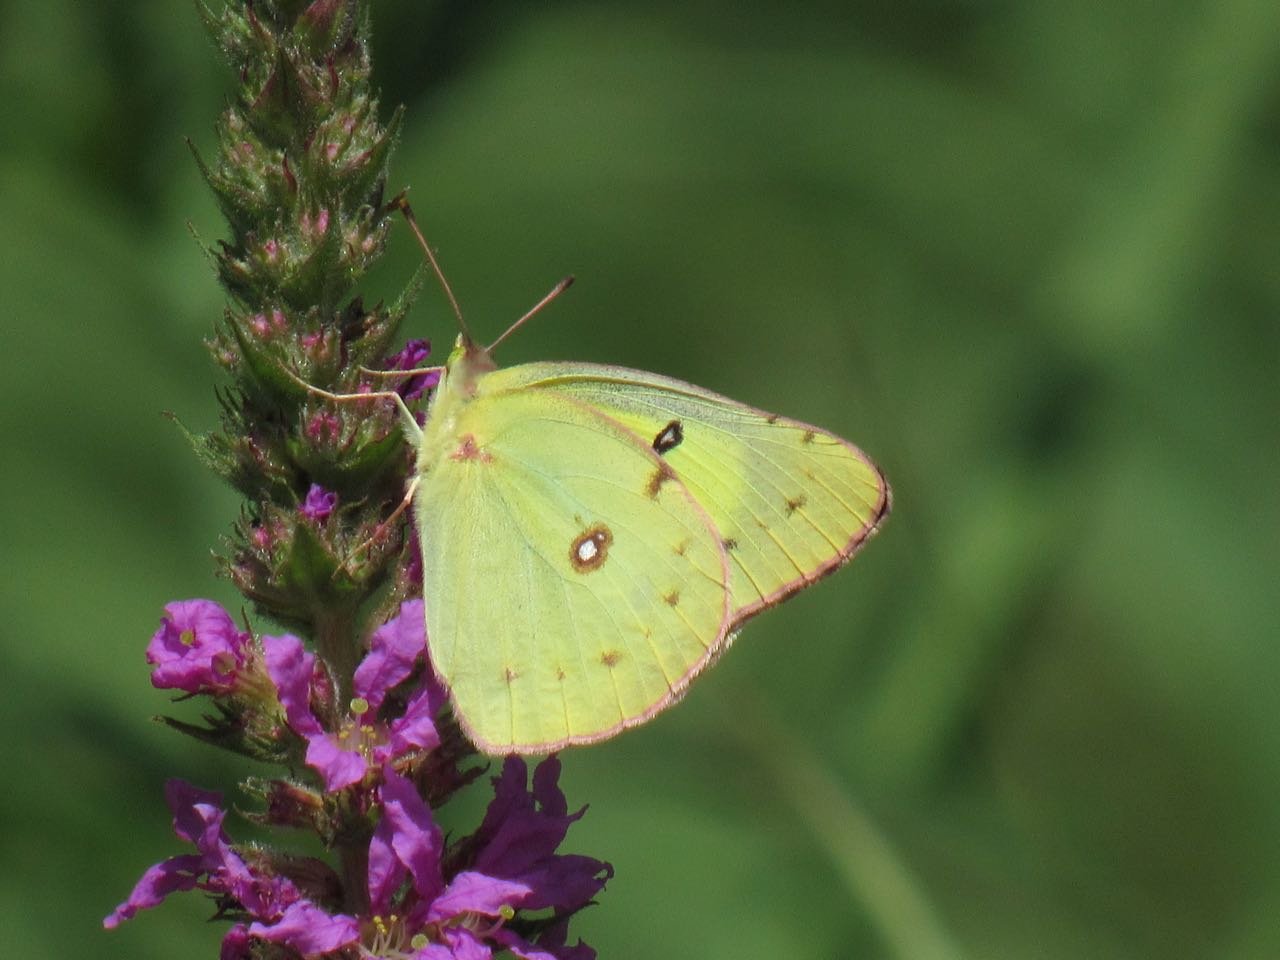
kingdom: Animalia
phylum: Arthropoda
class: Insecta
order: Lepidoptera
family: Pieridae
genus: Colias
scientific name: Colias philodice
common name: Clouded Sulphur
